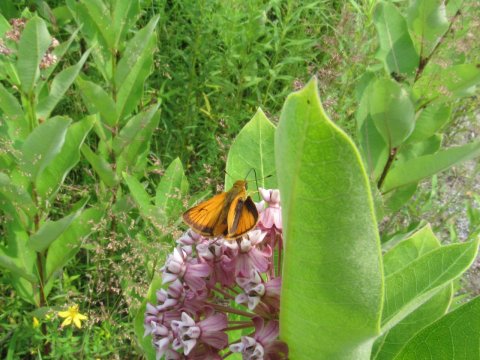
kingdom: Animalia
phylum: Arthropoda
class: Insecta
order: Lepidoptera
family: Hesperiidae
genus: Atrytone
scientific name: Atrytone delaware
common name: Delaware Skipper
